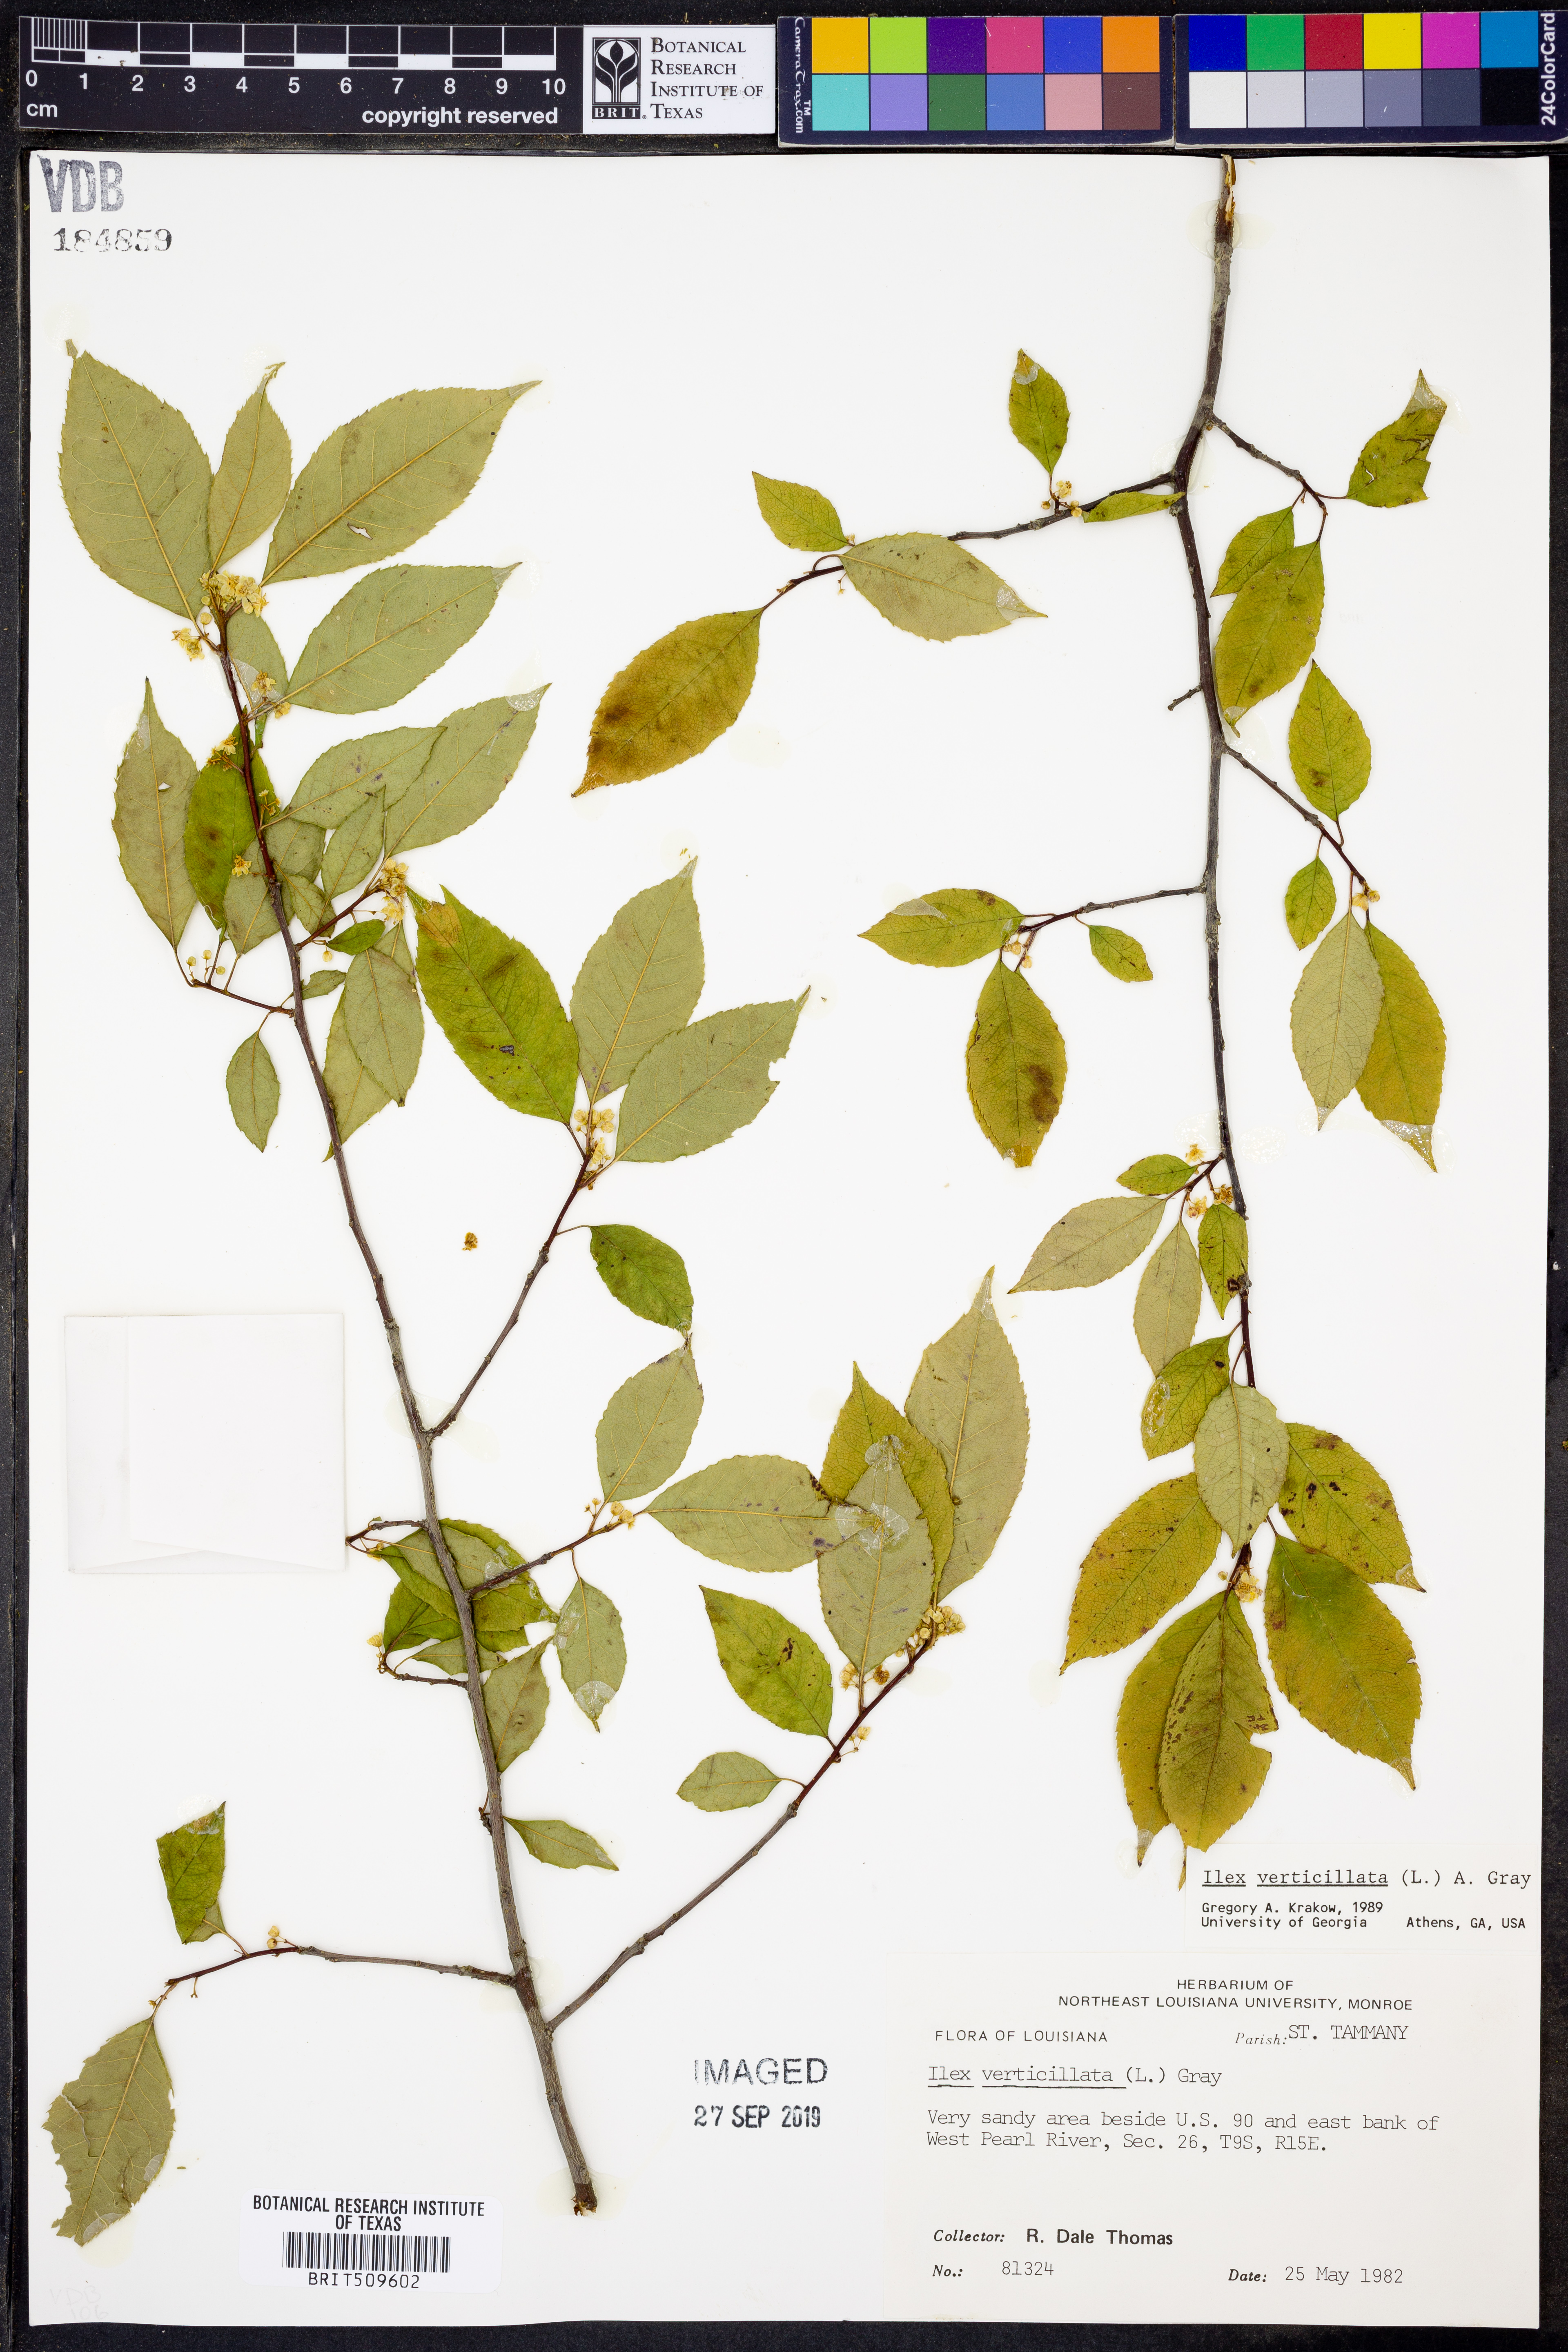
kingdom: Plantae
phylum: Tracheophyta
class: Magnoliopsida
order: Aquifoliales
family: Aquifoliaceae
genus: Ilex
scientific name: Ilex verticillata
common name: Virginia winterberry
